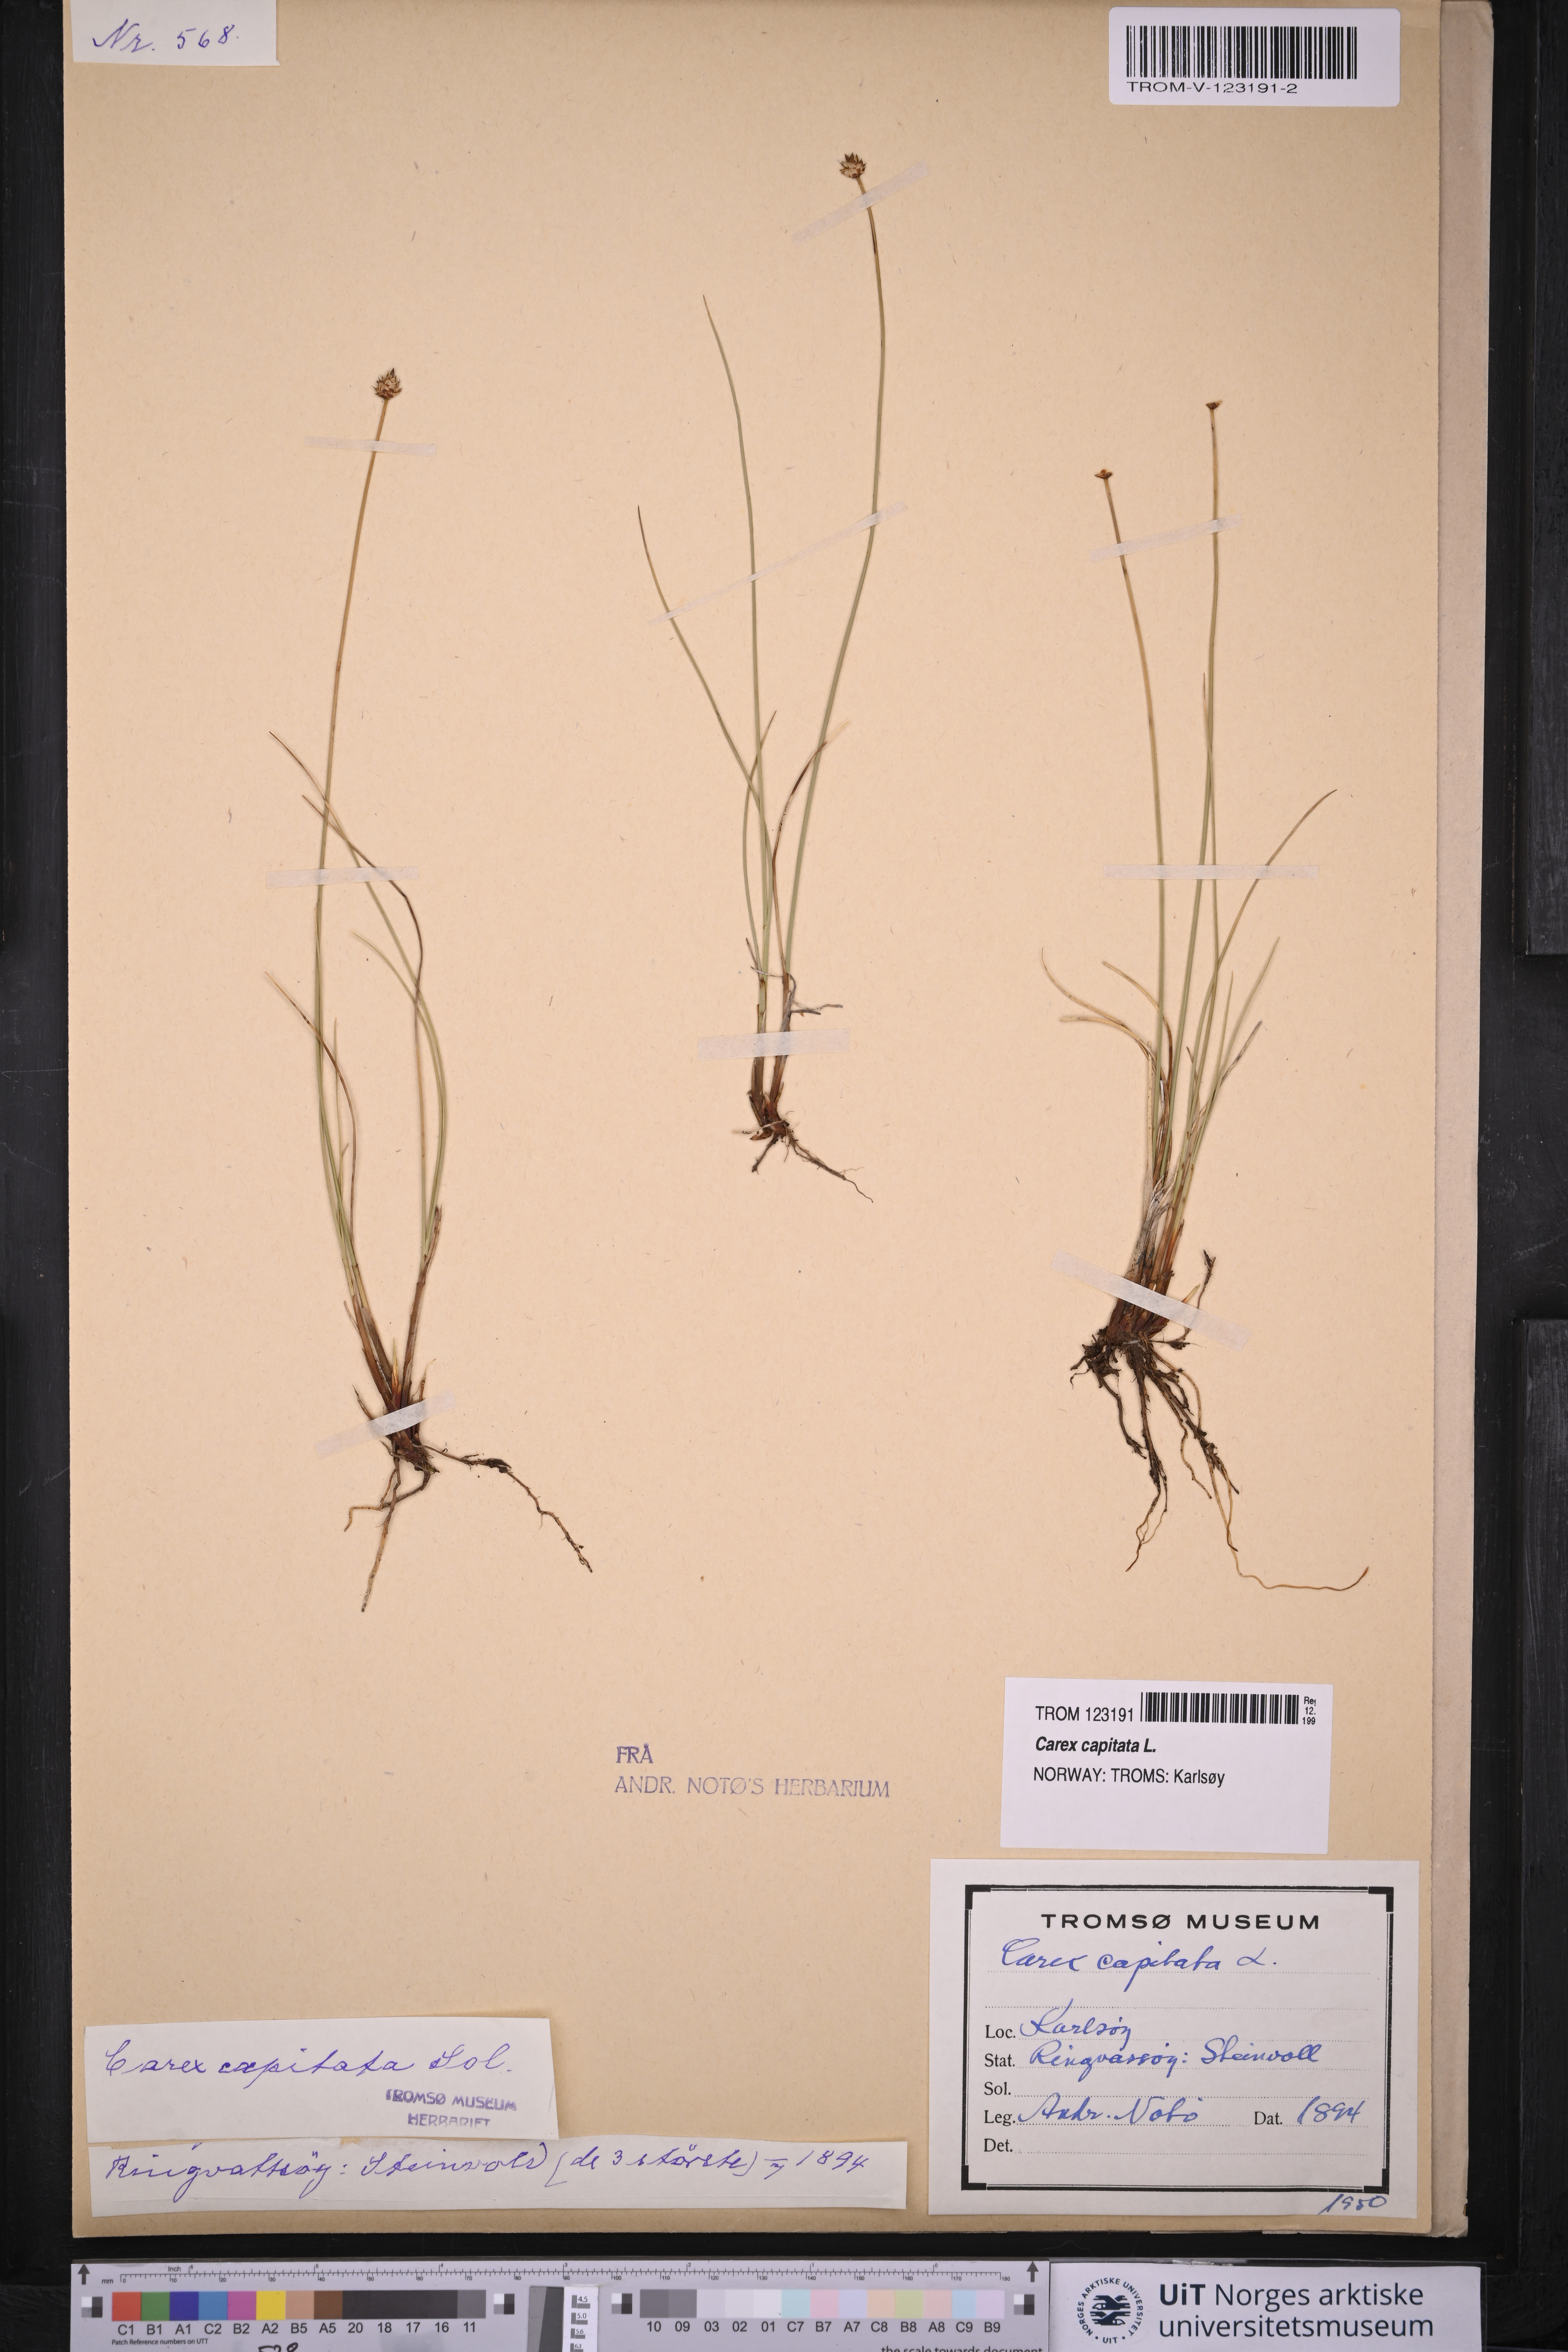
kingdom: Plantae
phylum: Tracheophyta
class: Liliopsida
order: Poales
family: Cyperaceae
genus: Carex
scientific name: Carex capitata
